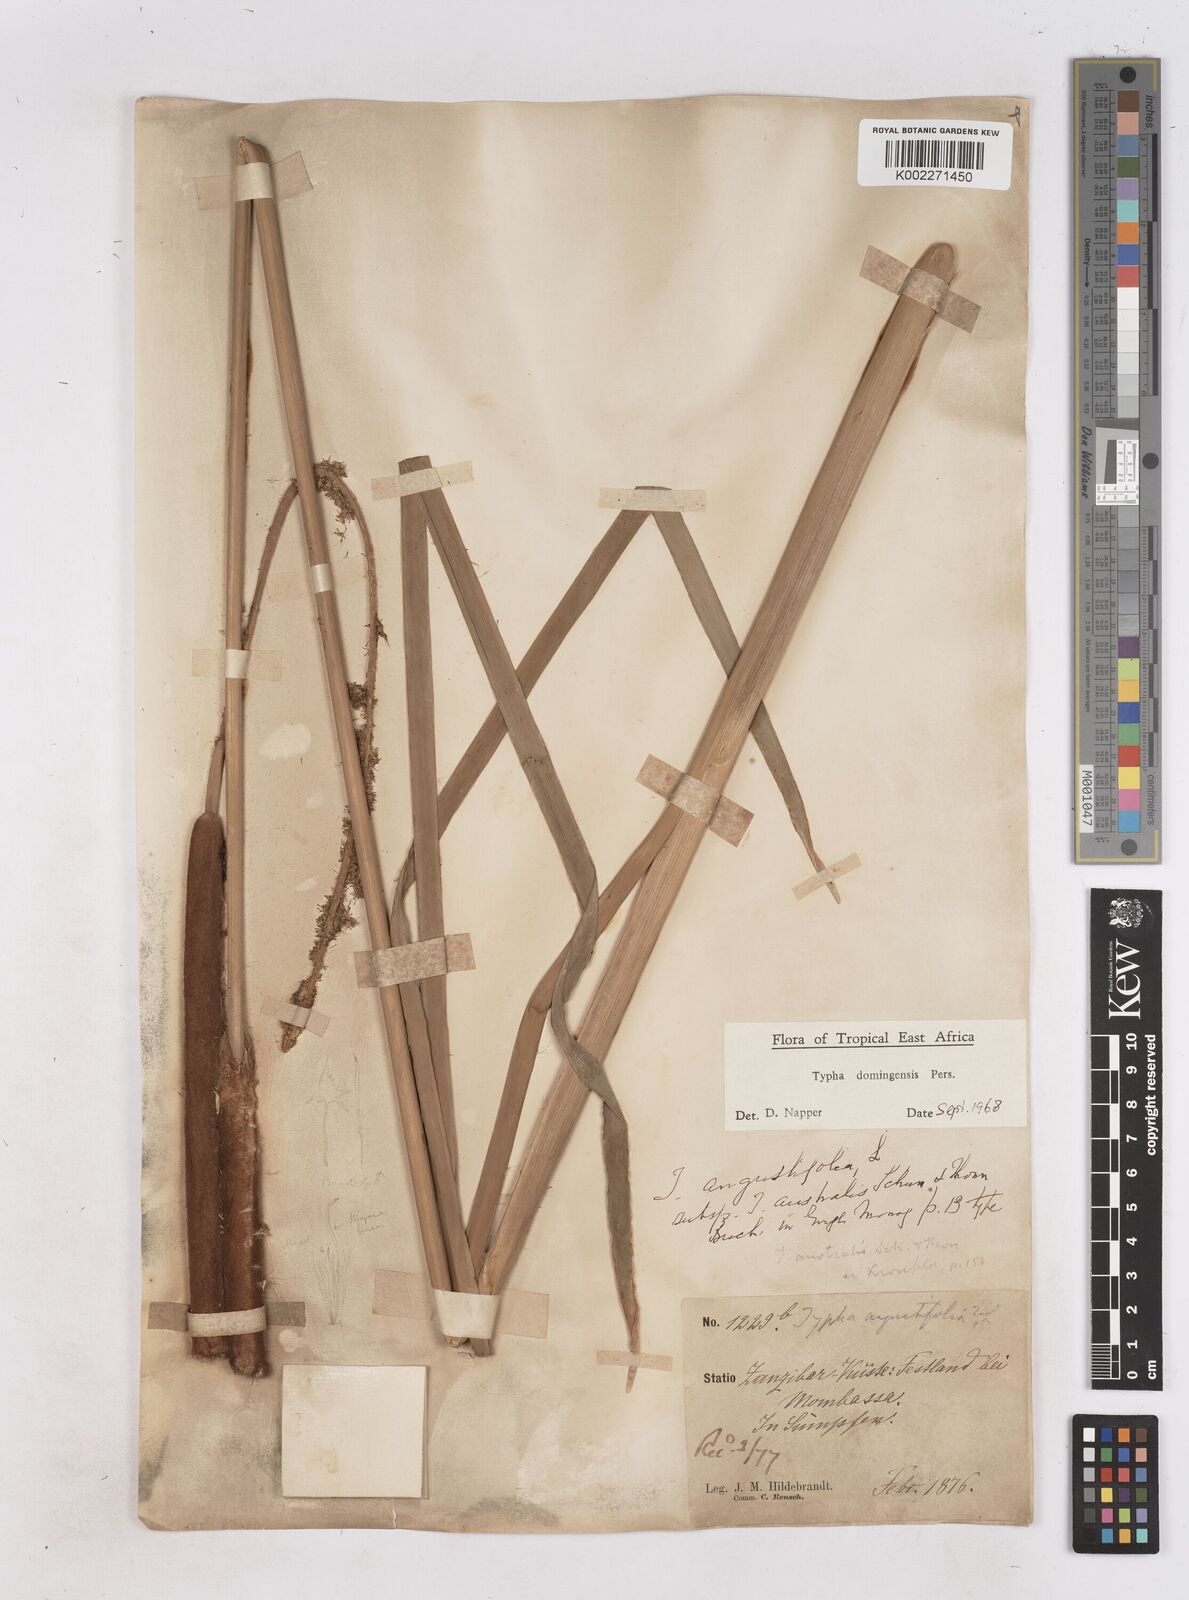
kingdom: Plantae
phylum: Tracheophyta
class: Liliopsida
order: Poales
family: Typhaceae
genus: Typha
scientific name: Typha domingensis
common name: Southern cattail
